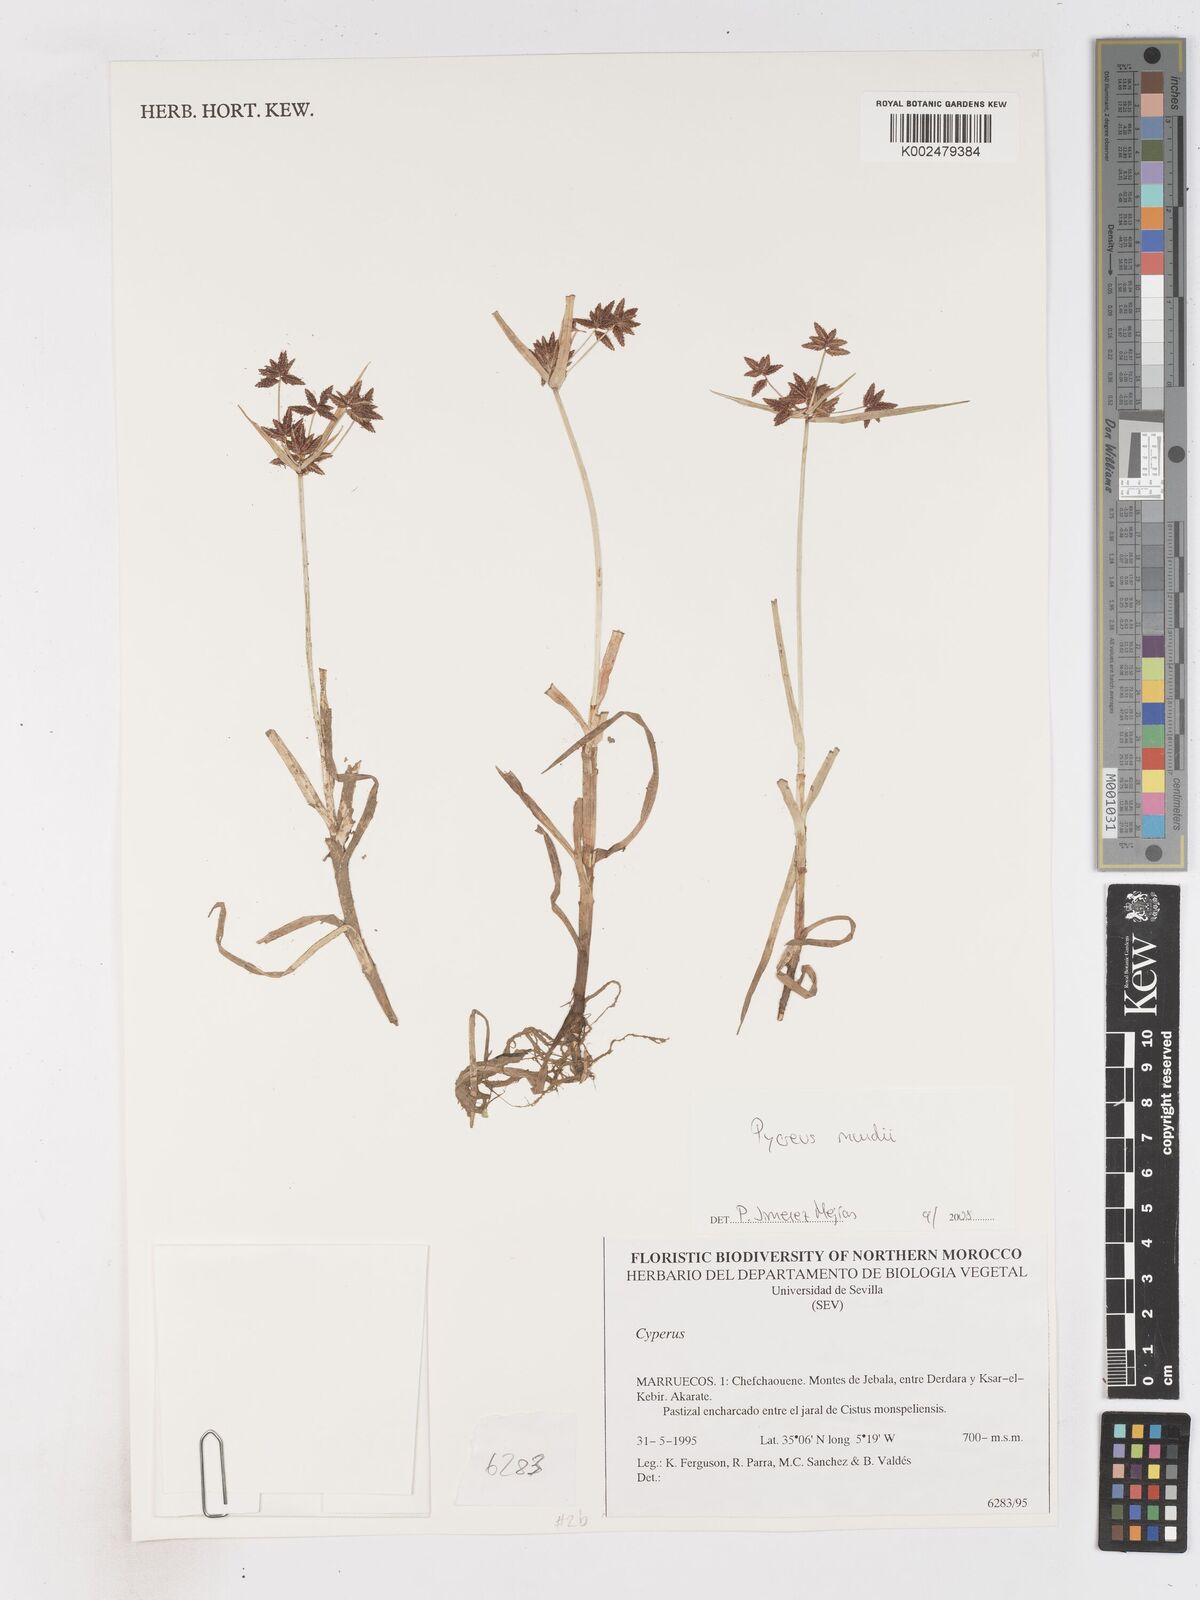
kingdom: Plantae
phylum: Tracheophyta
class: Liliopsida
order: Poales
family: Cyperaceae
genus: Cyperus
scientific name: Cyperus
